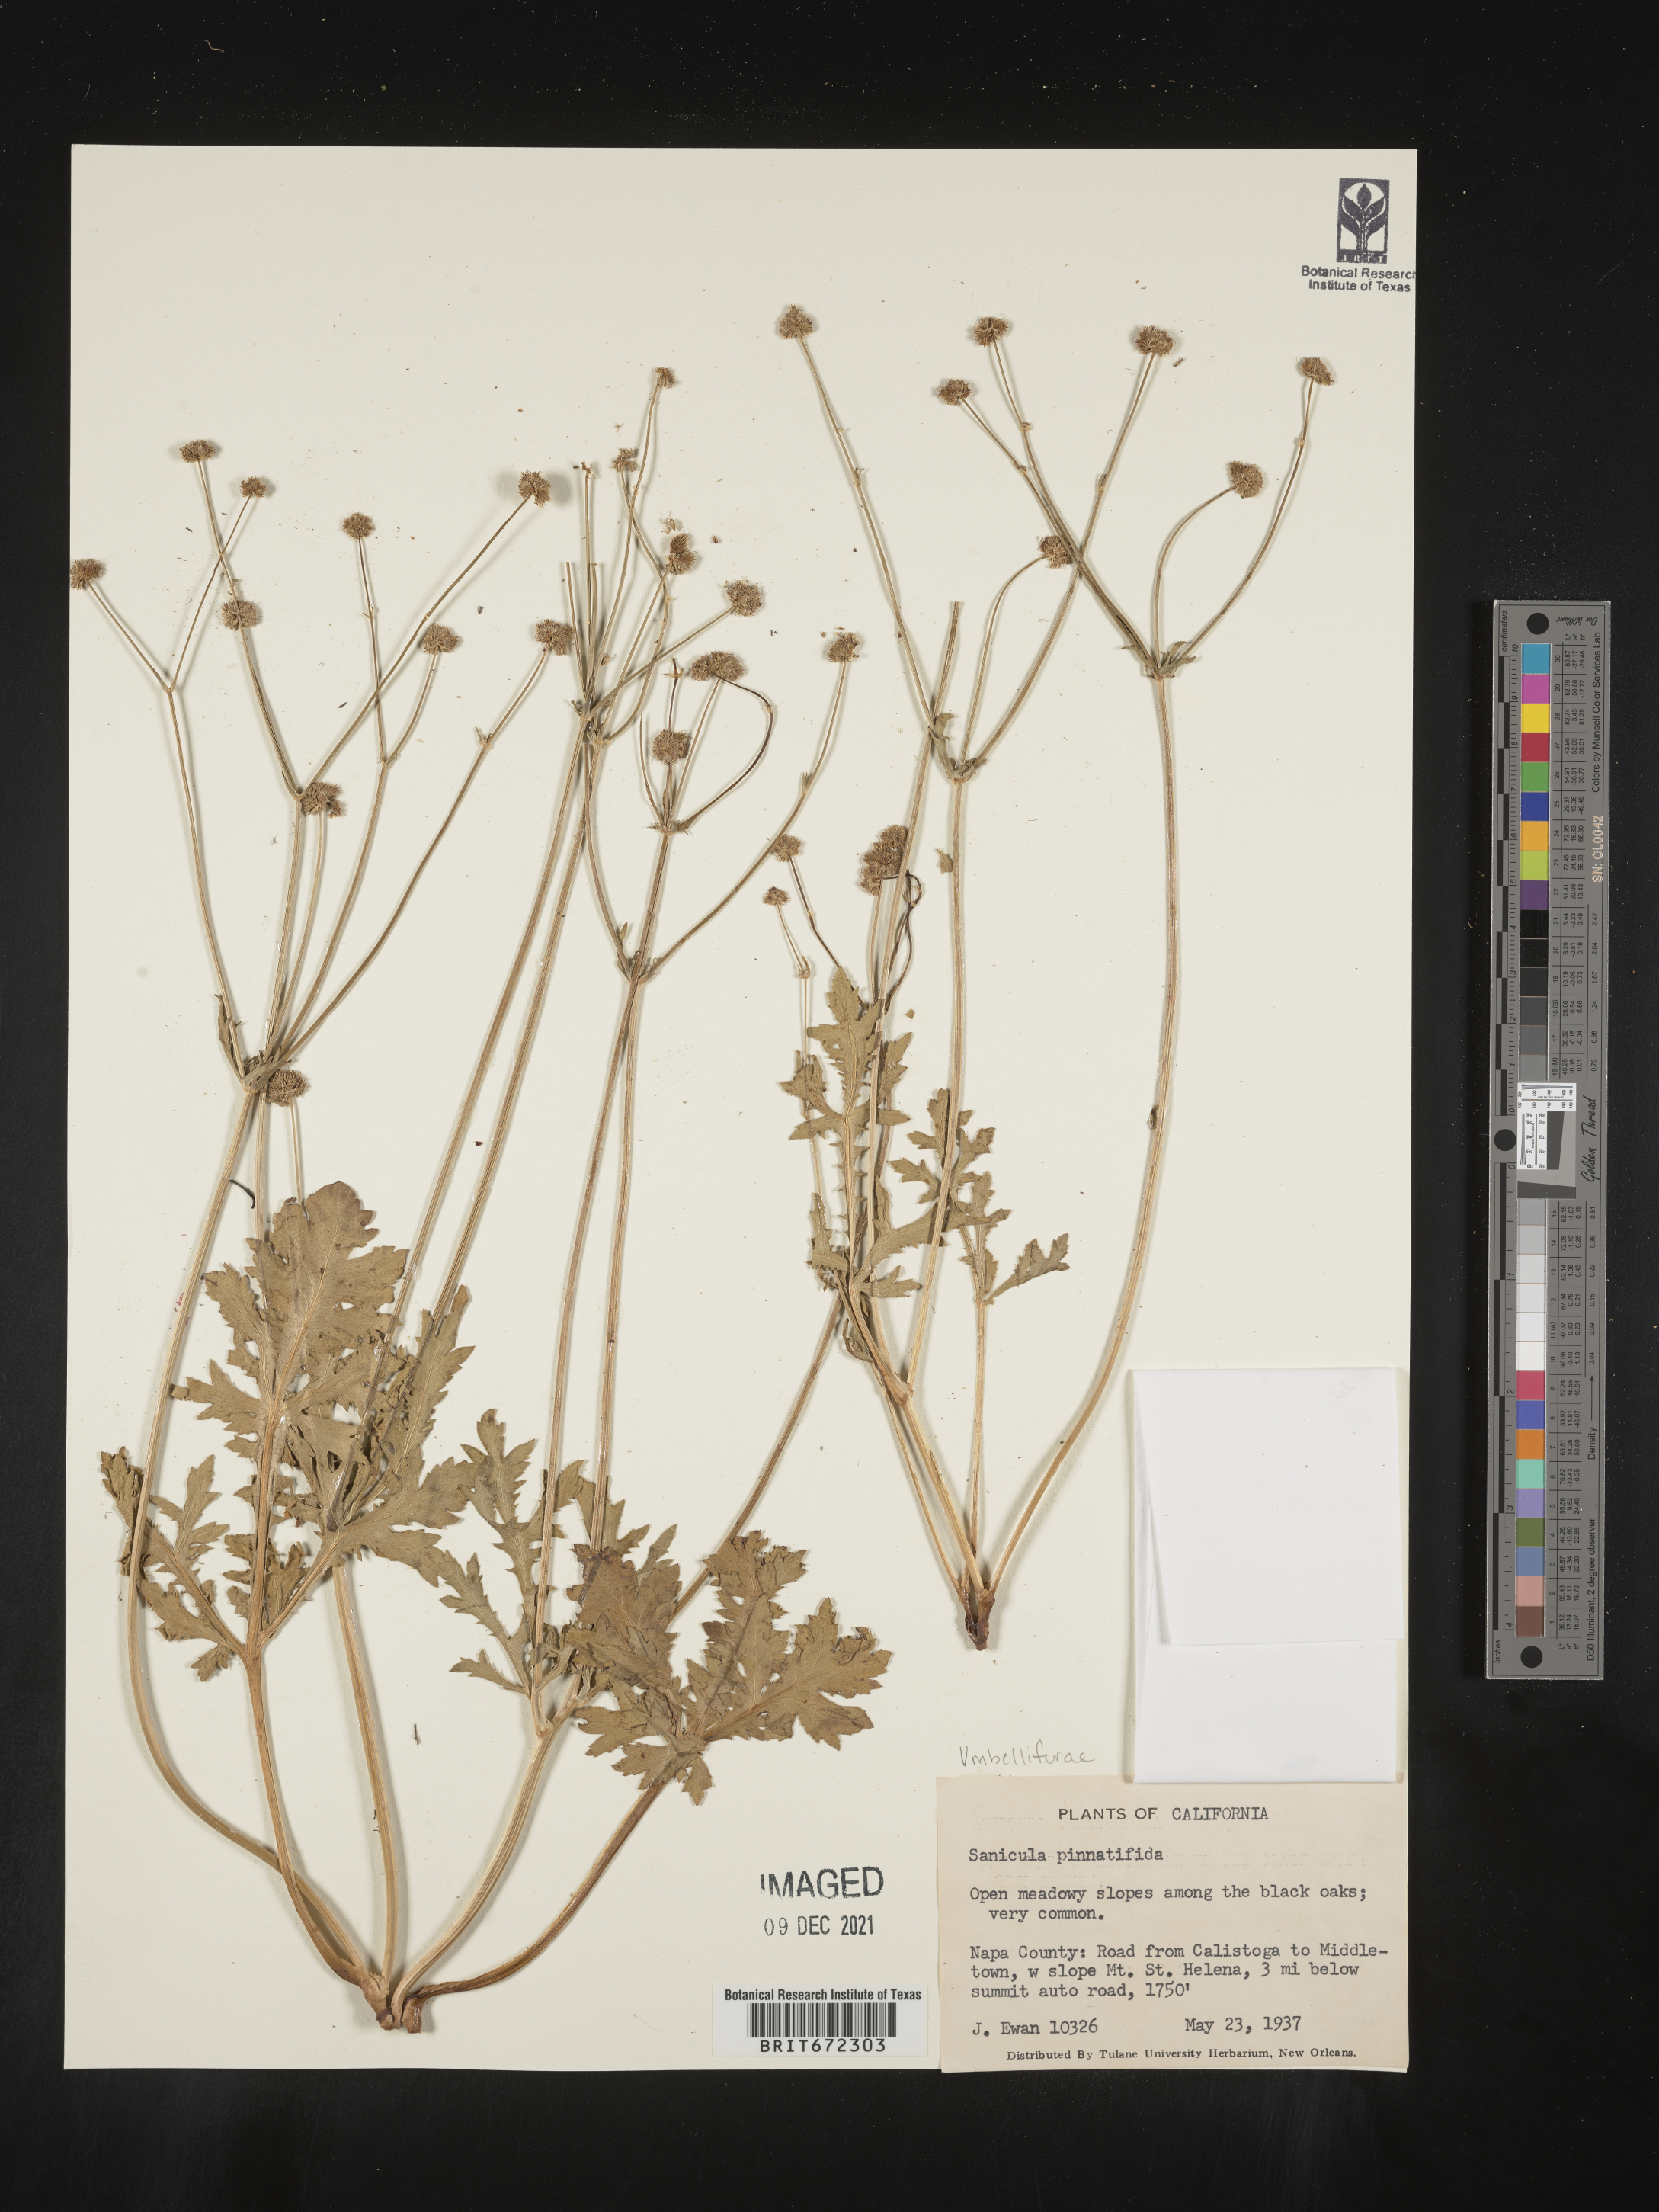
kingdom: Plantae
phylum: Tracheophyta
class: Magnoliopsida
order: Apiales
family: Apiaceae
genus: Sanicula
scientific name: Sanicula
